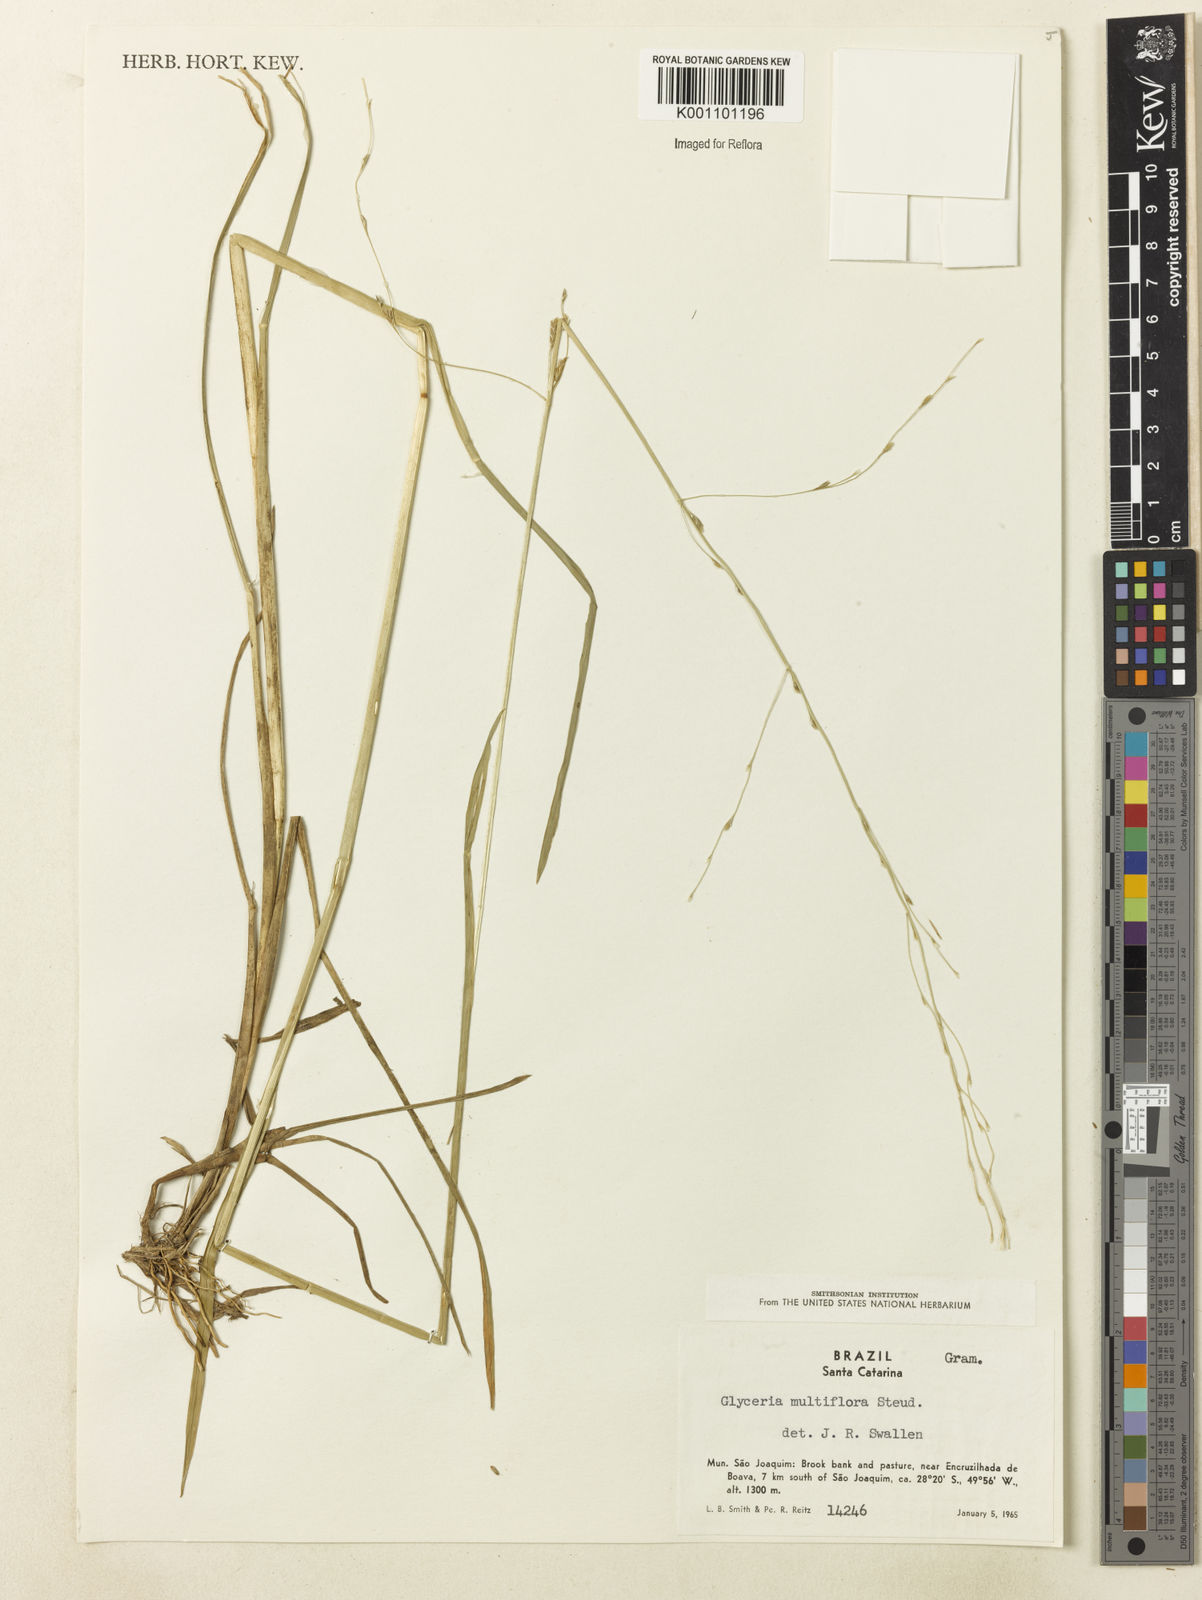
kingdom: Plantae
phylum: Tracheophyta
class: Liliopsida
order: Poales
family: Poaceae
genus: Glyceria
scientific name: Glyceria multiflora
